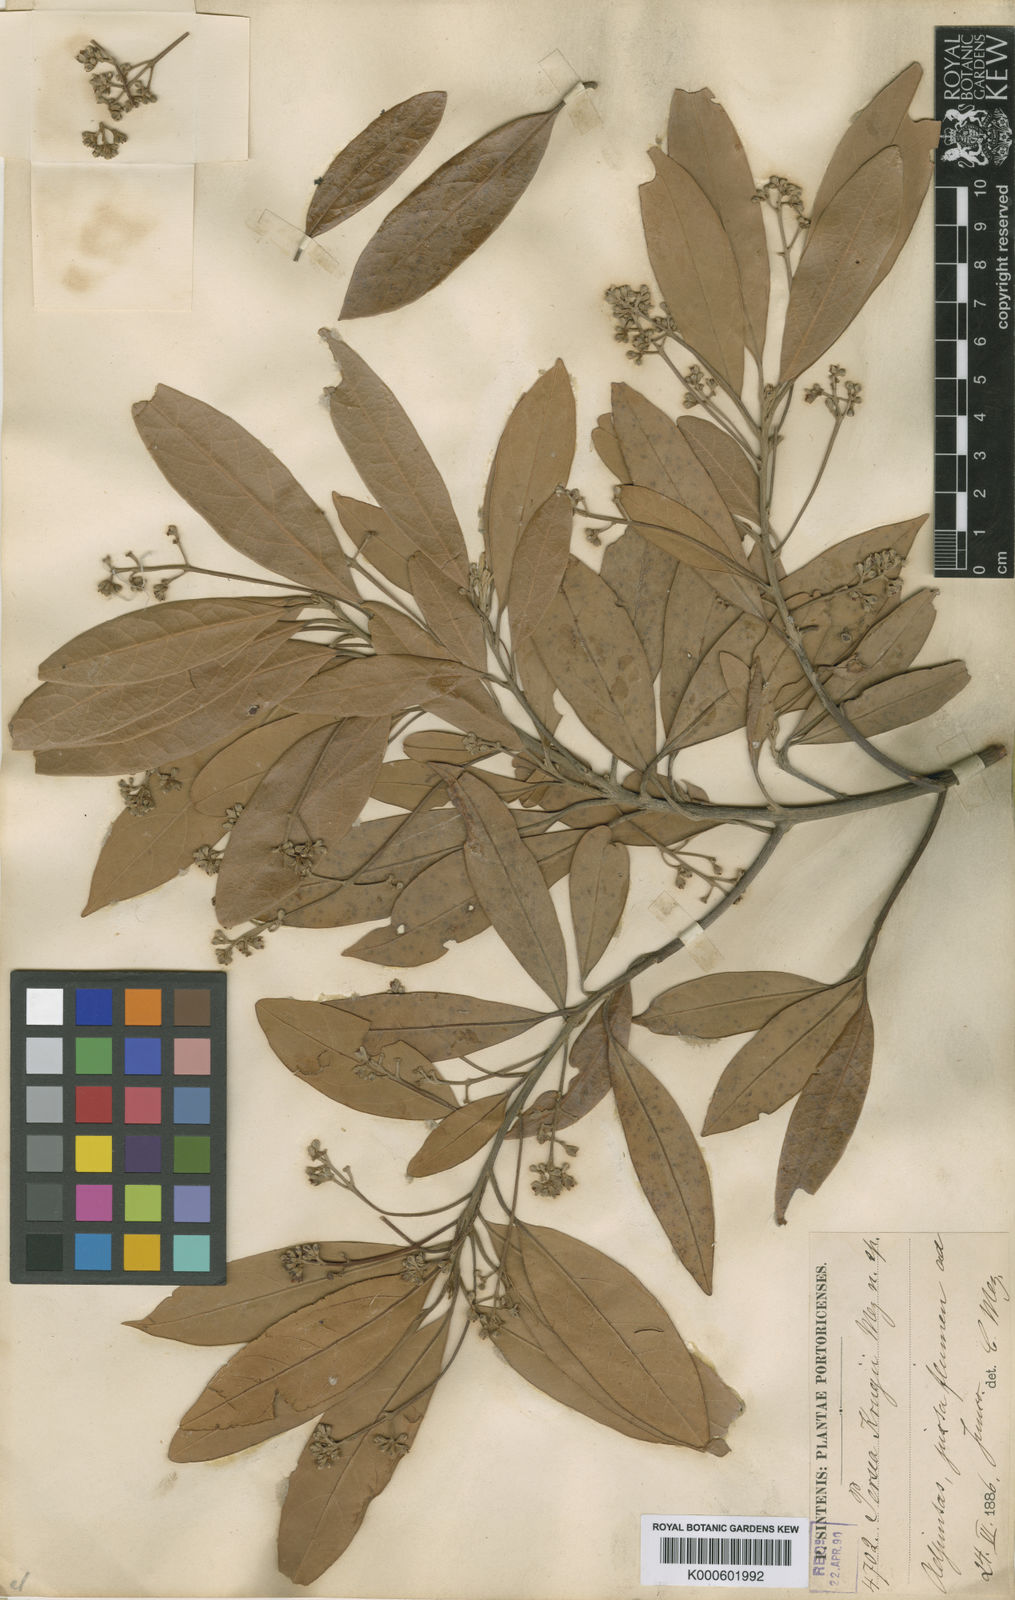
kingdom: Plantae
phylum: Tracheophyta
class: Magnoliopsida
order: Laurales
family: Lauraceae
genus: Persea
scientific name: Persea krugii
